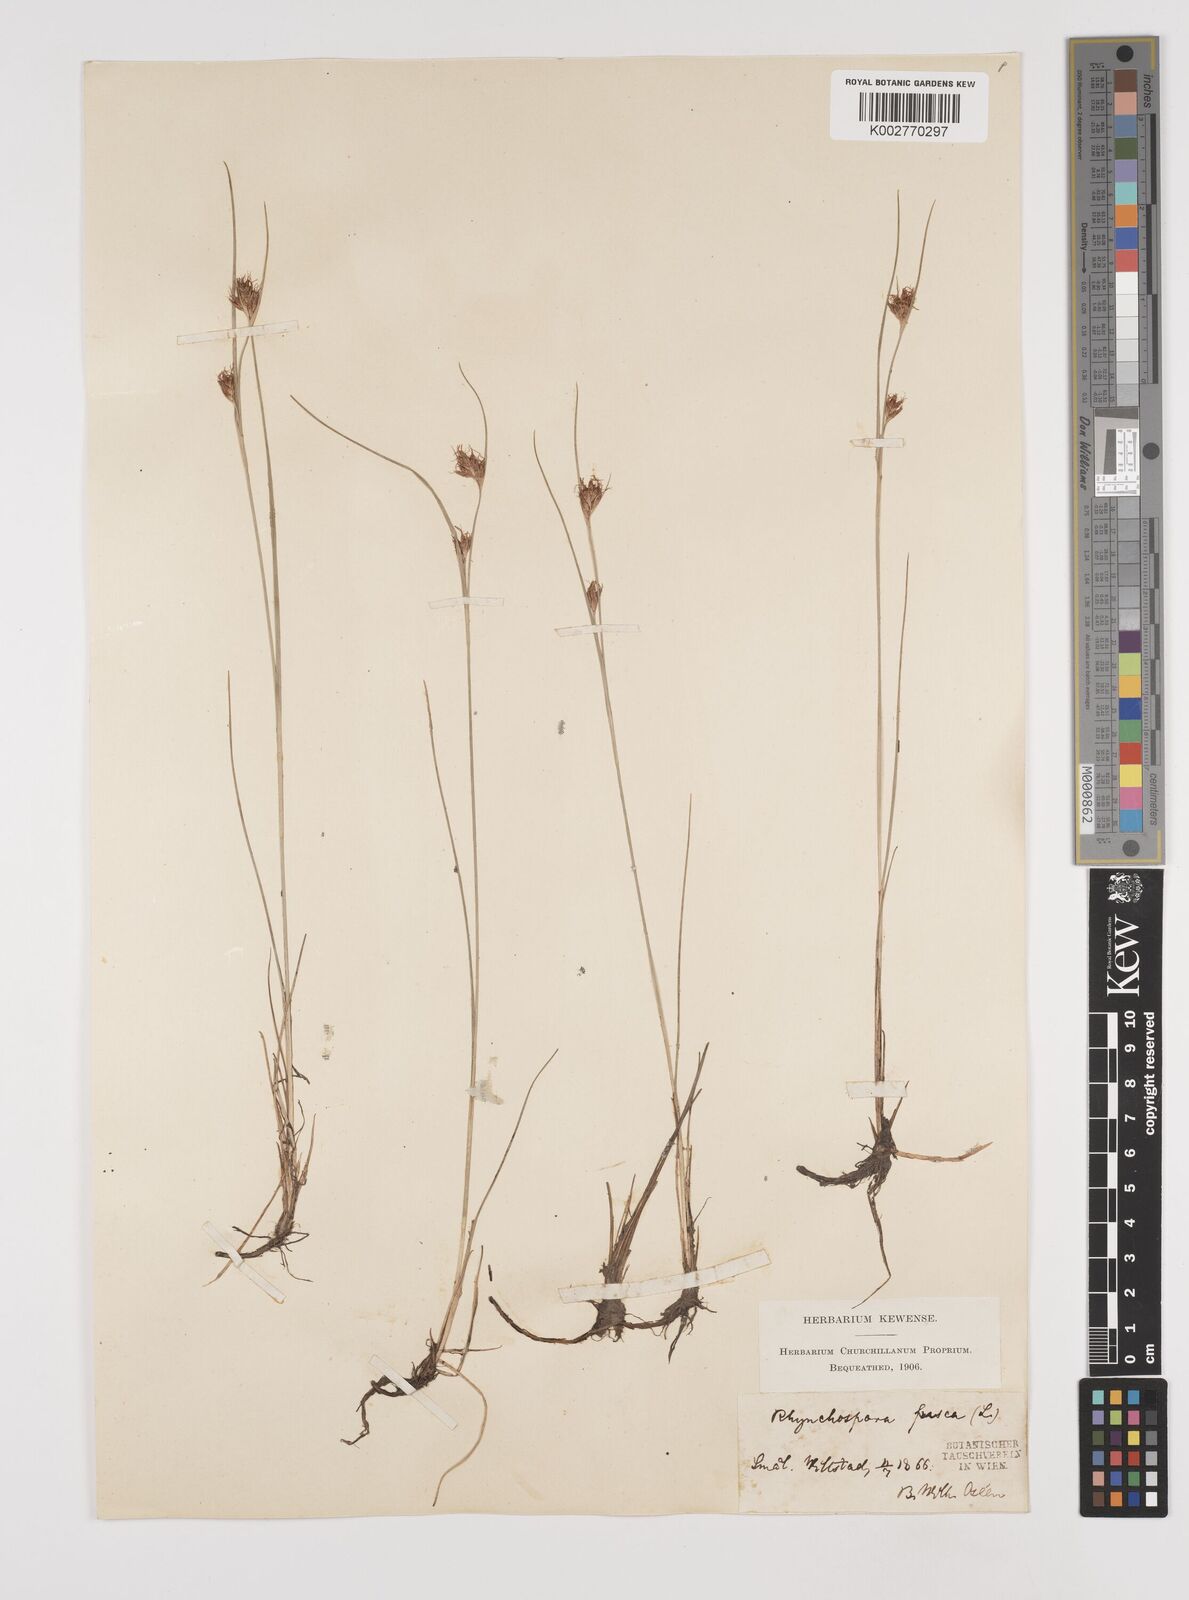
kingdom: Plantae
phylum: Tracheophyta
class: Liliopsida
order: Poales
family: Cyperaceae
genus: Rhynchospora
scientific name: Rhynchospora fusca
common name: Brown beak-sedge
